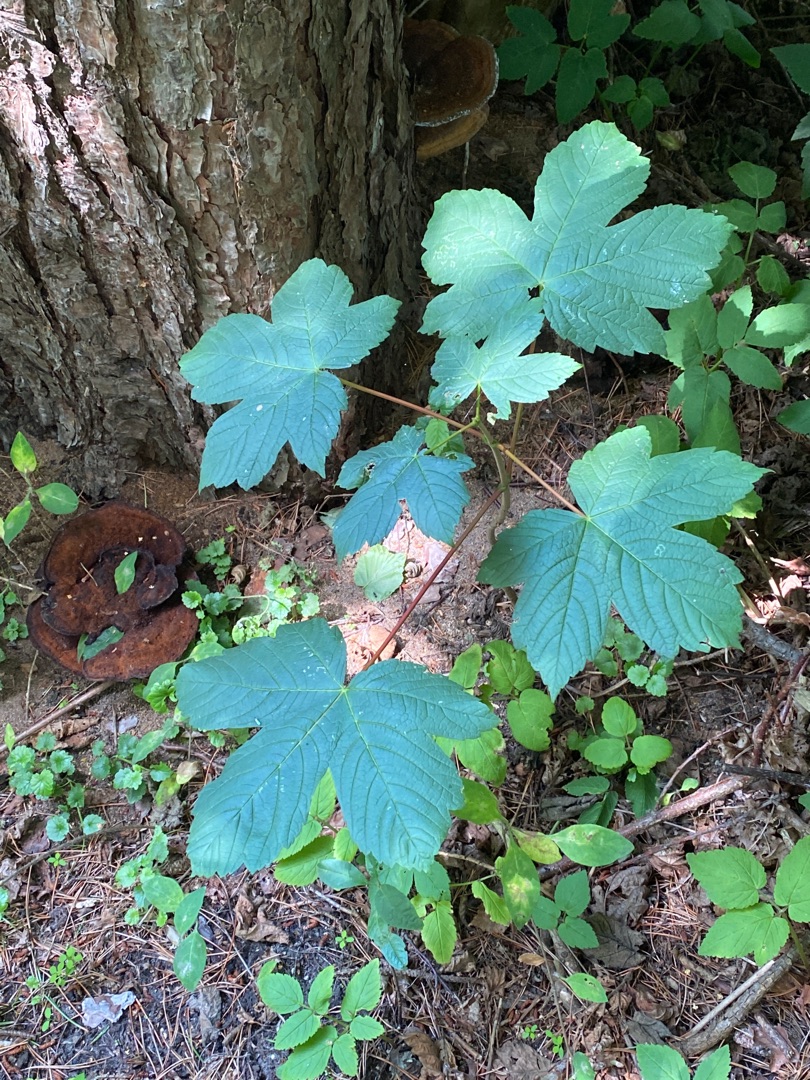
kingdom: Plantae
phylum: Tracheophyta
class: Magnoliopsida
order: Sapindales
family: Sapindaceae
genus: Acer
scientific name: Acer pseudoplatanus
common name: Ahorn
